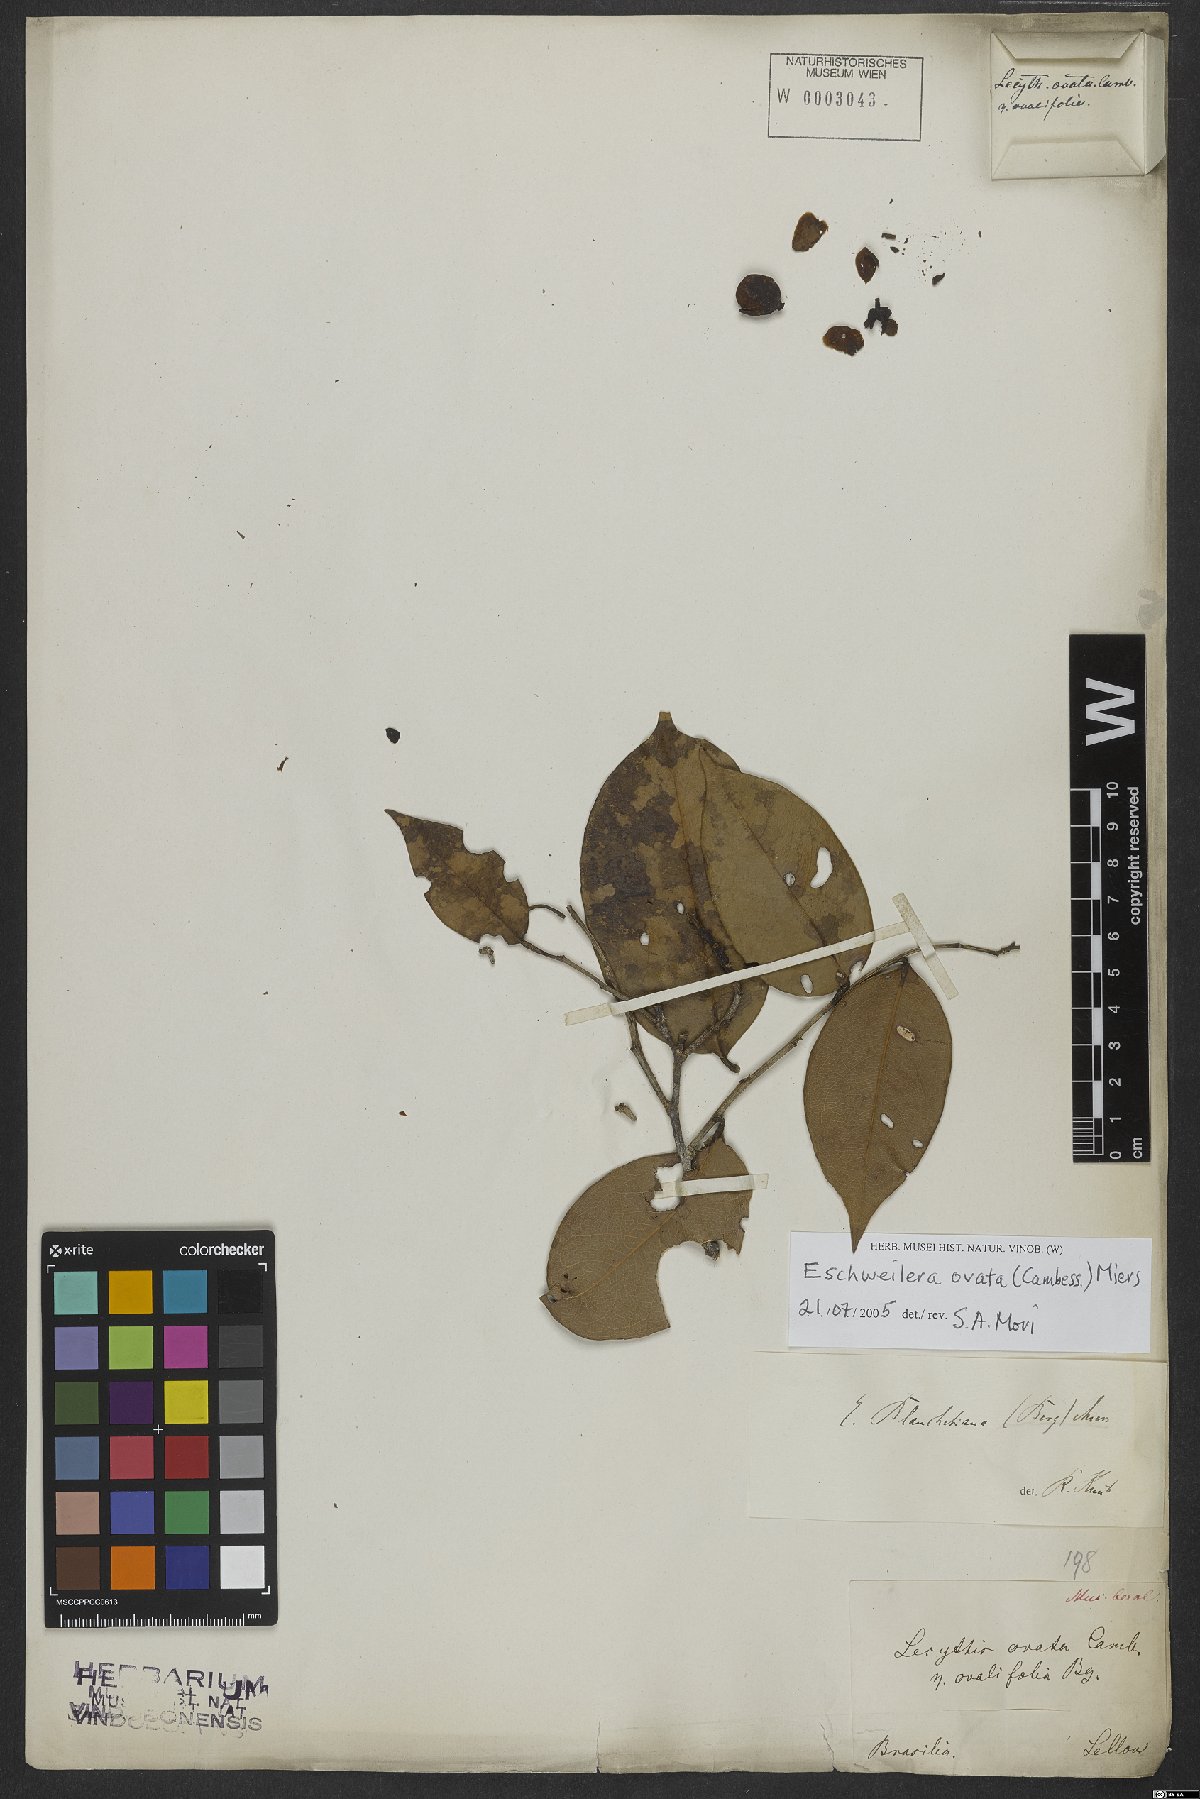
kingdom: Plantae
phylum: Tracheophyta
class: Magnoliopsida
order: Ericales
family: Lecythidaceae
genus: Eschweilera
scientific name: Eschweilera ovata
